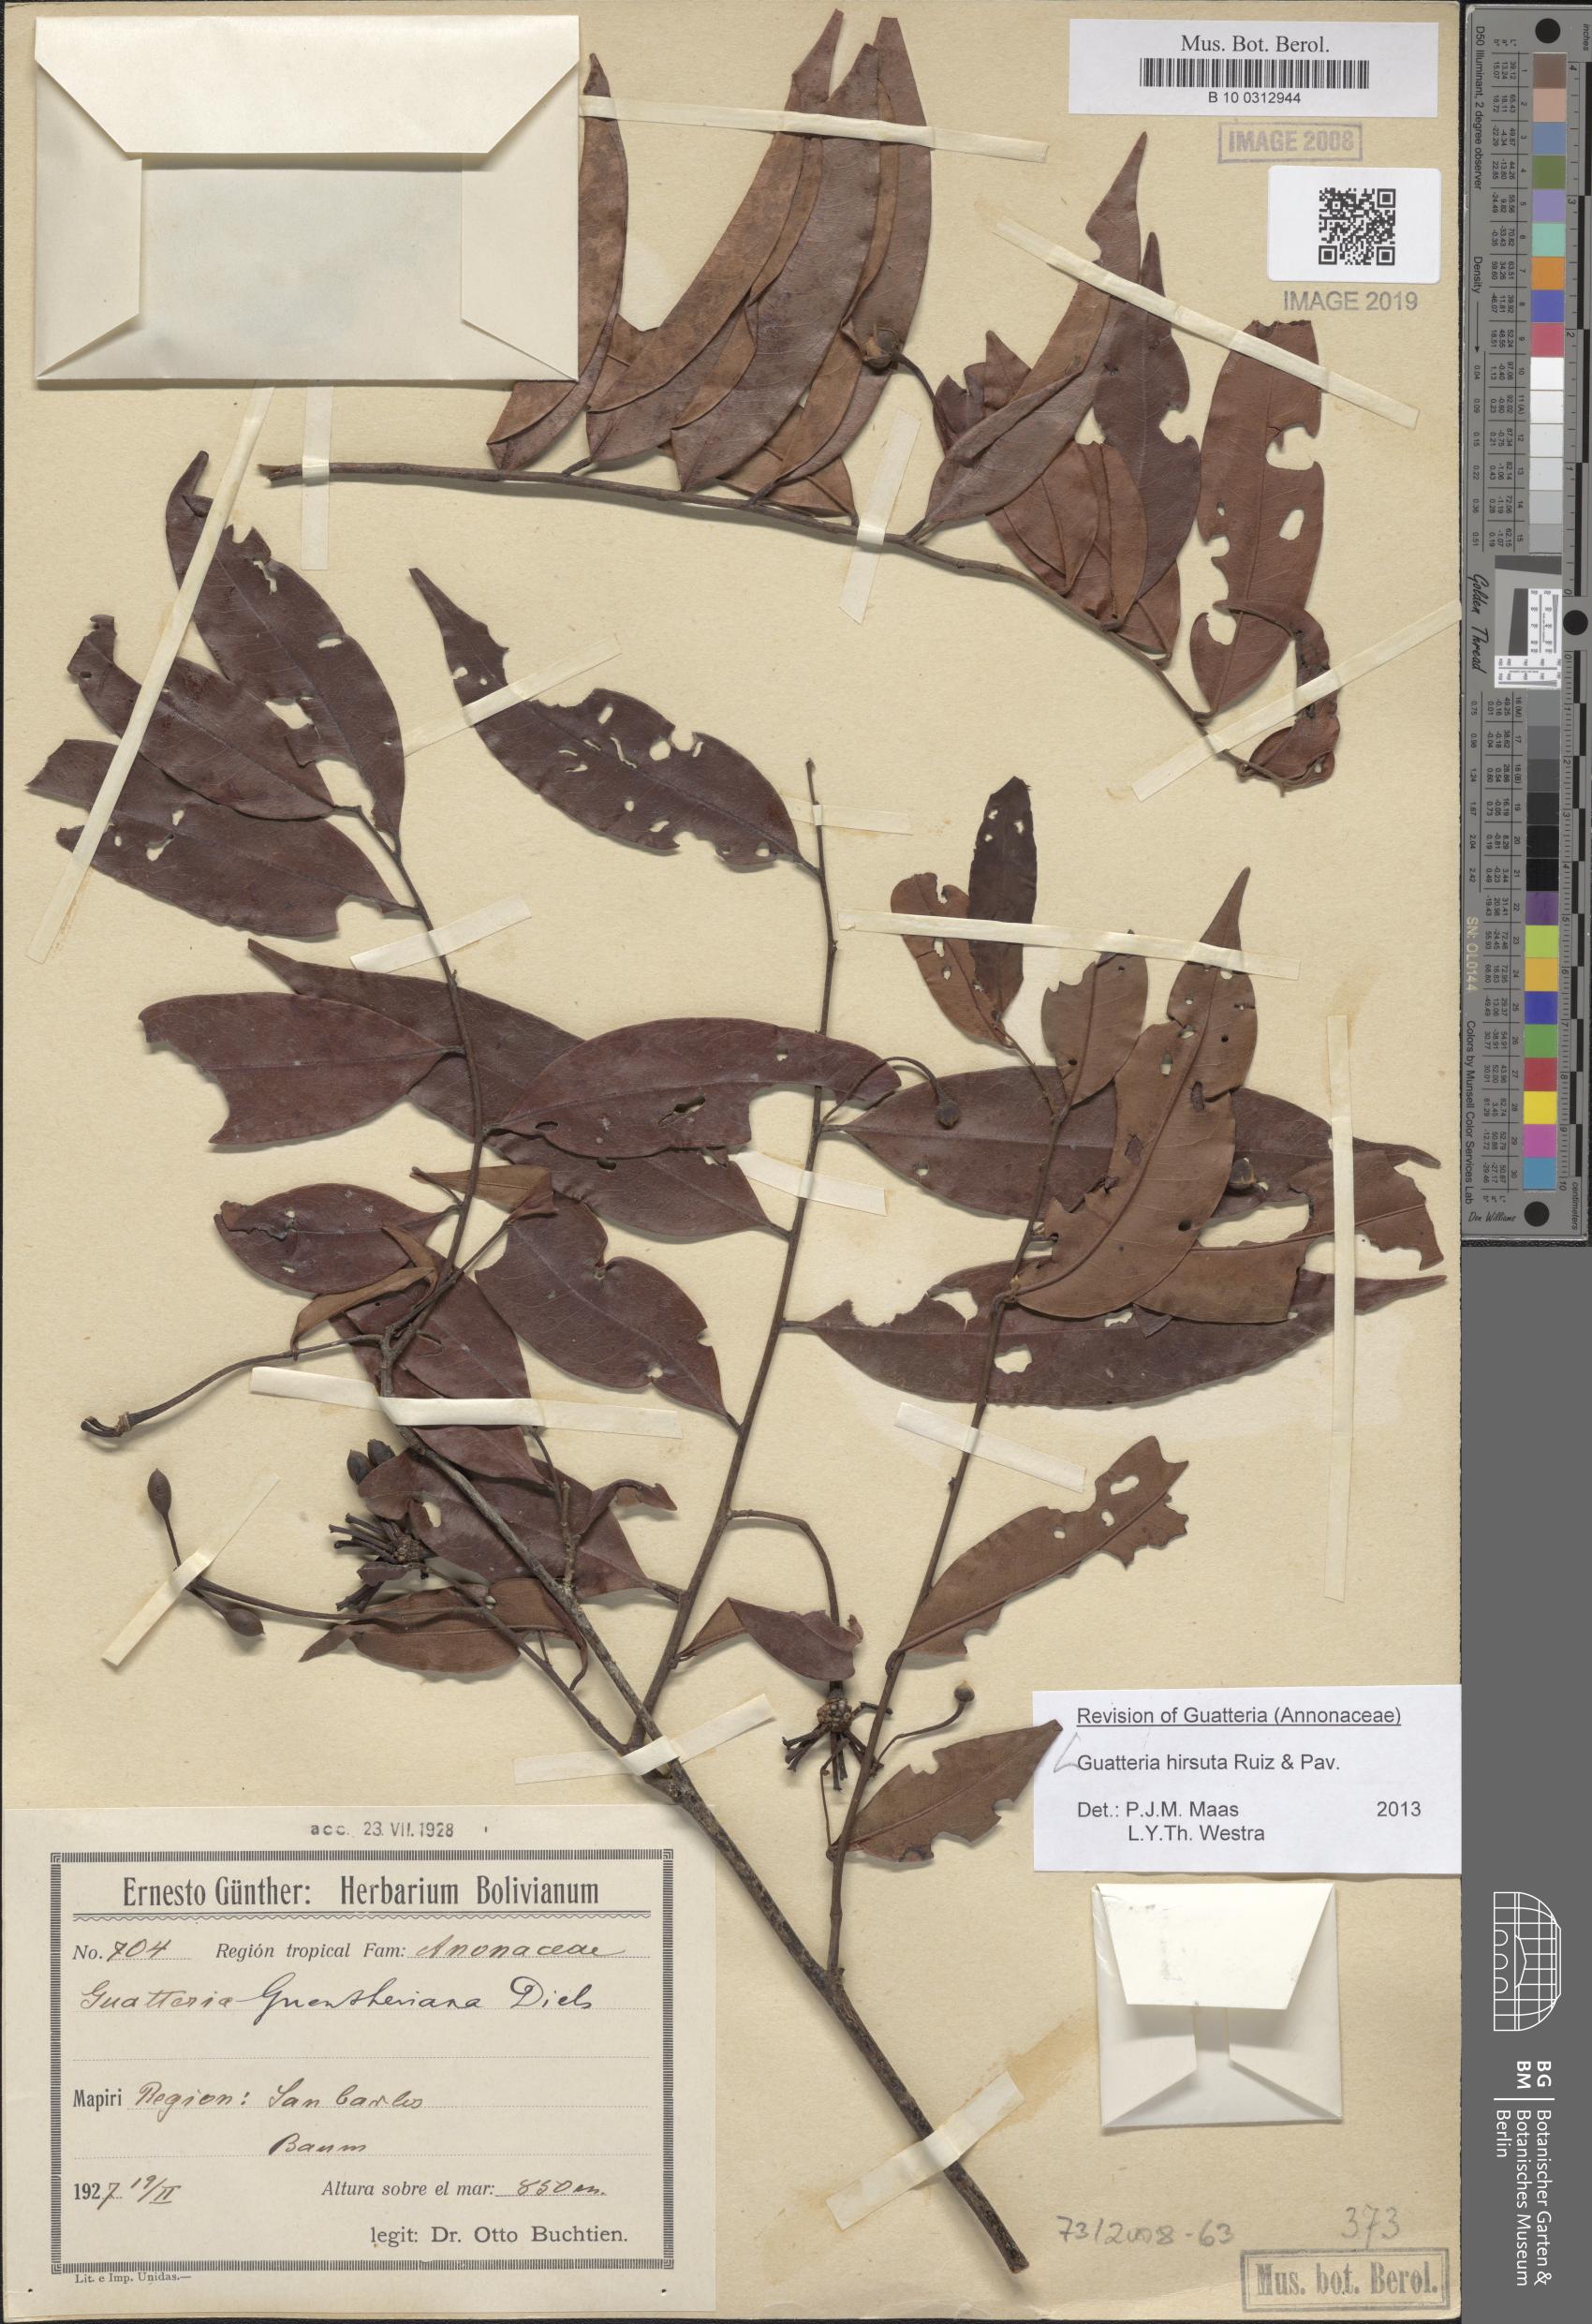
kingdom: Plantae
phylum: Tracheophyta
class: Magnoliopsida
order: Magnoliales
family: Annonaceae
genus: Guatteria
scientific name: Guatteria hirsuta
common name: Laurel
